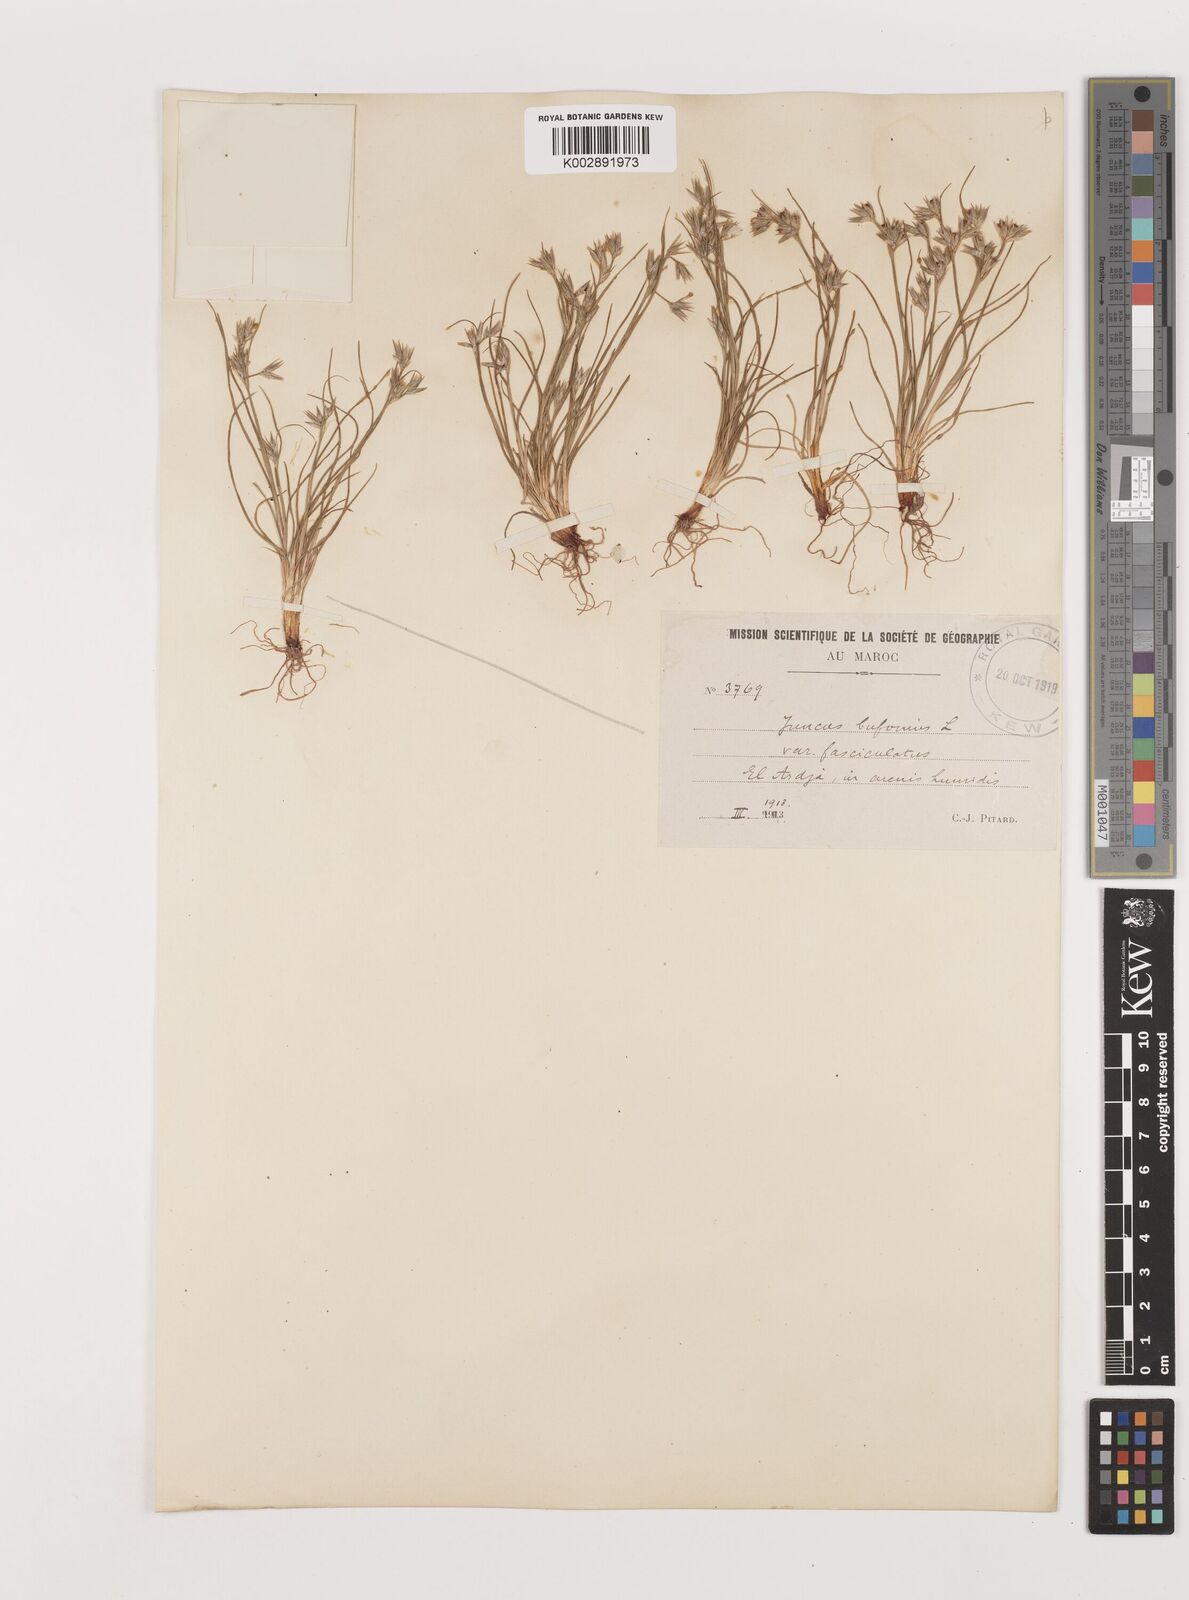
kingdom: Plantae
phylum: Tracheophyta
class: Liliopsida
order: Poales
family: Juncaceae
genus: Juncus
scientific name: Juncus bufonius
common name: Toad rush
